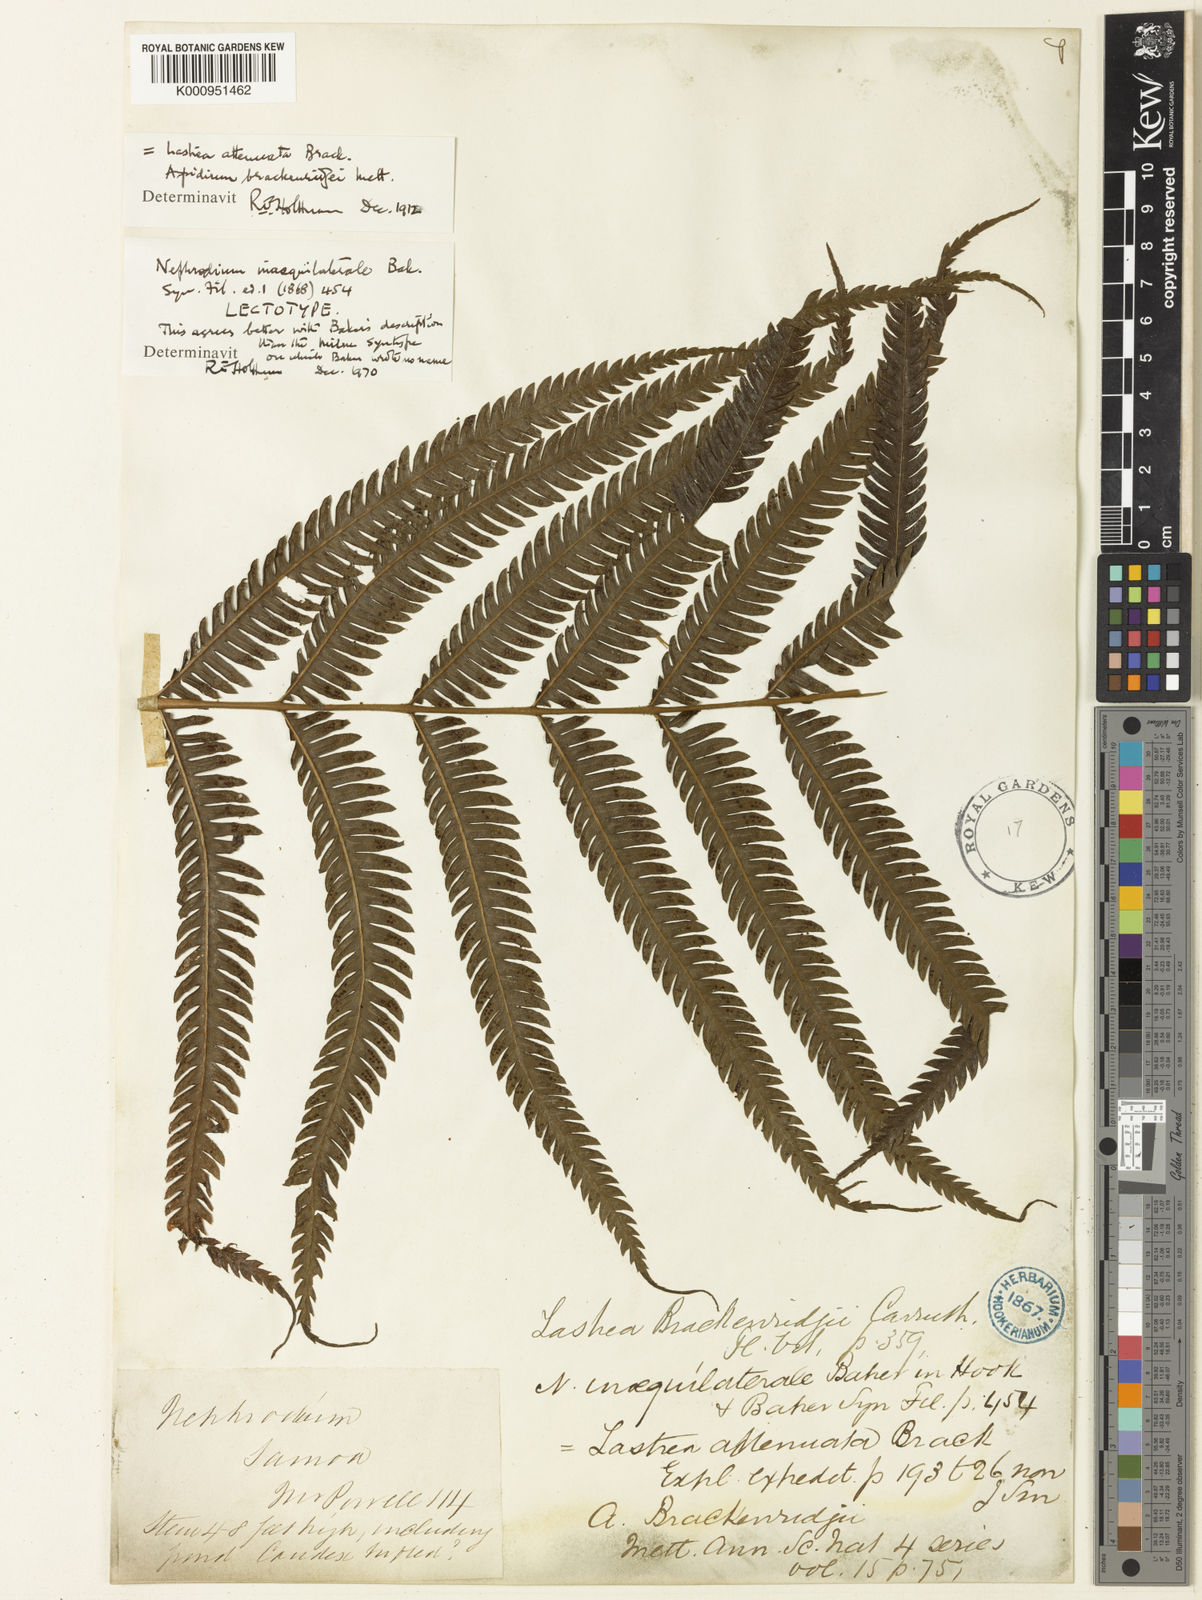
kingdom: Plantae
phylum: Tracheophyta
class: Polypodiopsida
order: Polypodiales
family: Thelypteridaceae
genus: Plesioneuron
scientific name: Plesioneuron attenuatum
